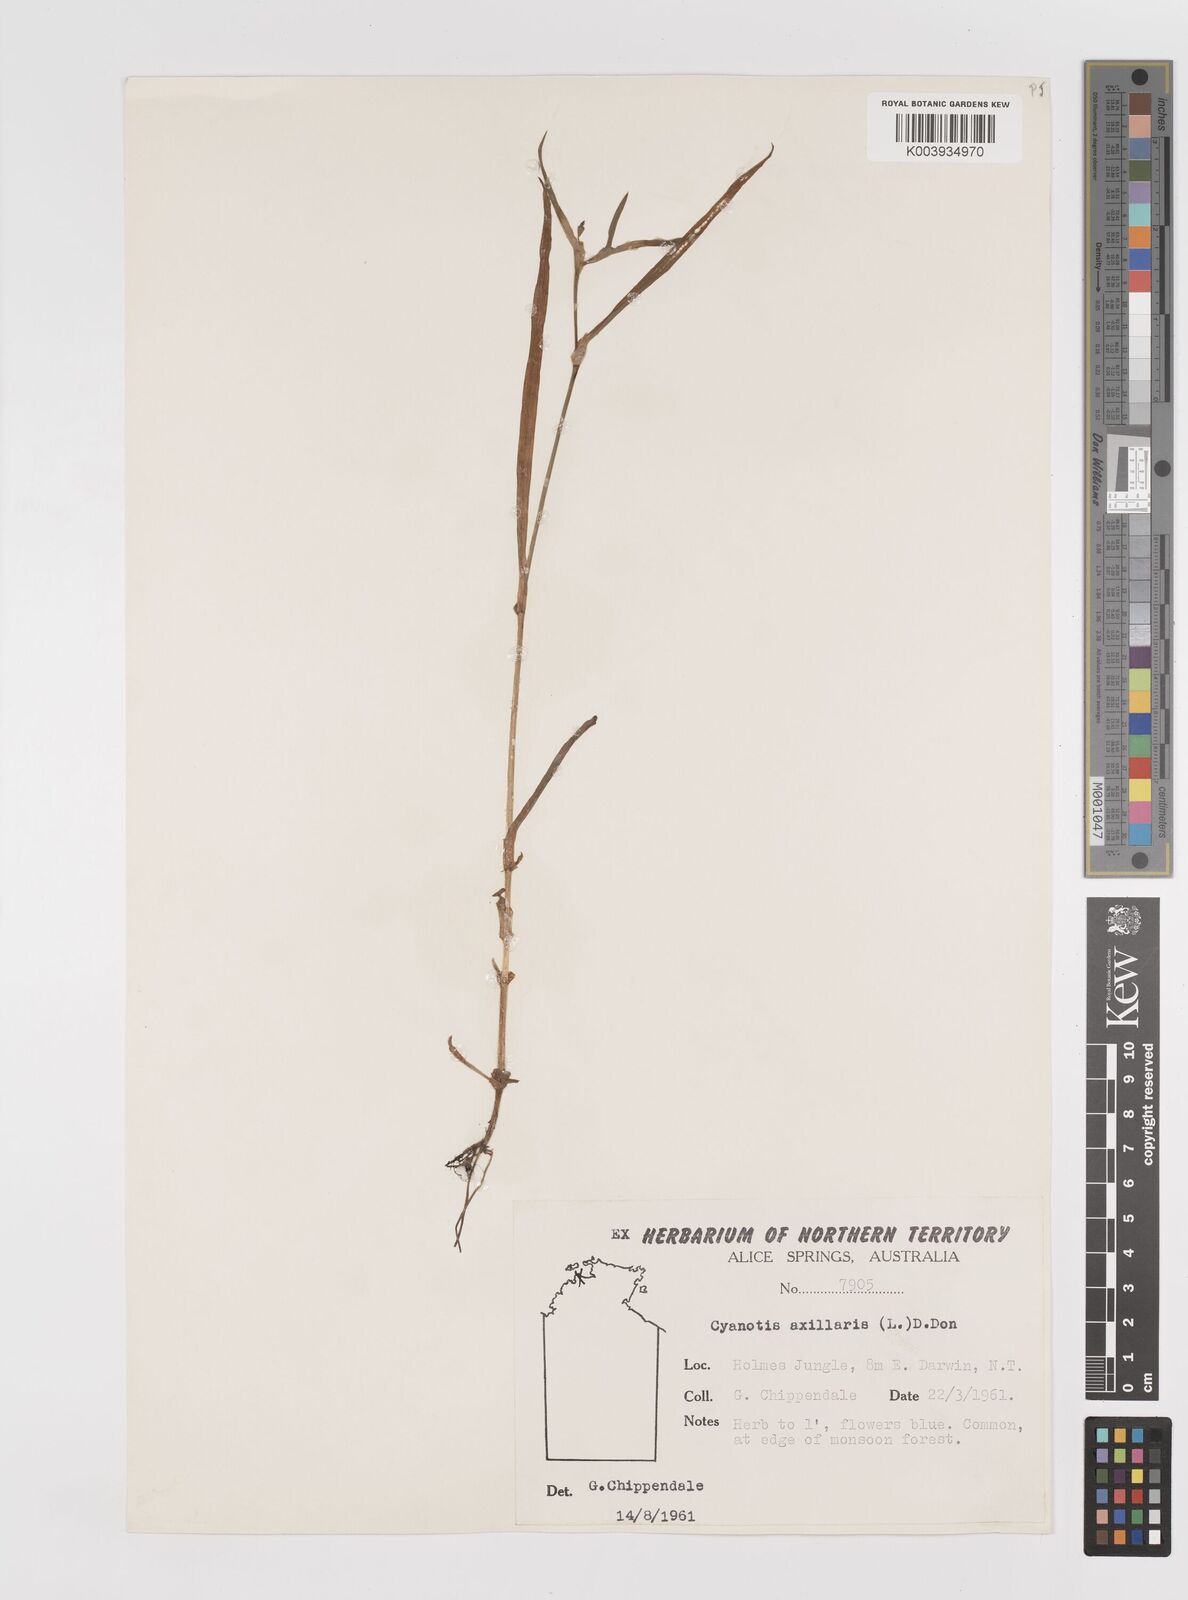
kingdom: Plantae
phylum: Tracheophyta
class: Liliopsida
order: Commelinales
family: Commelinaceae
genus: Cyanotis
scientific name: Cyanotis axillaris
